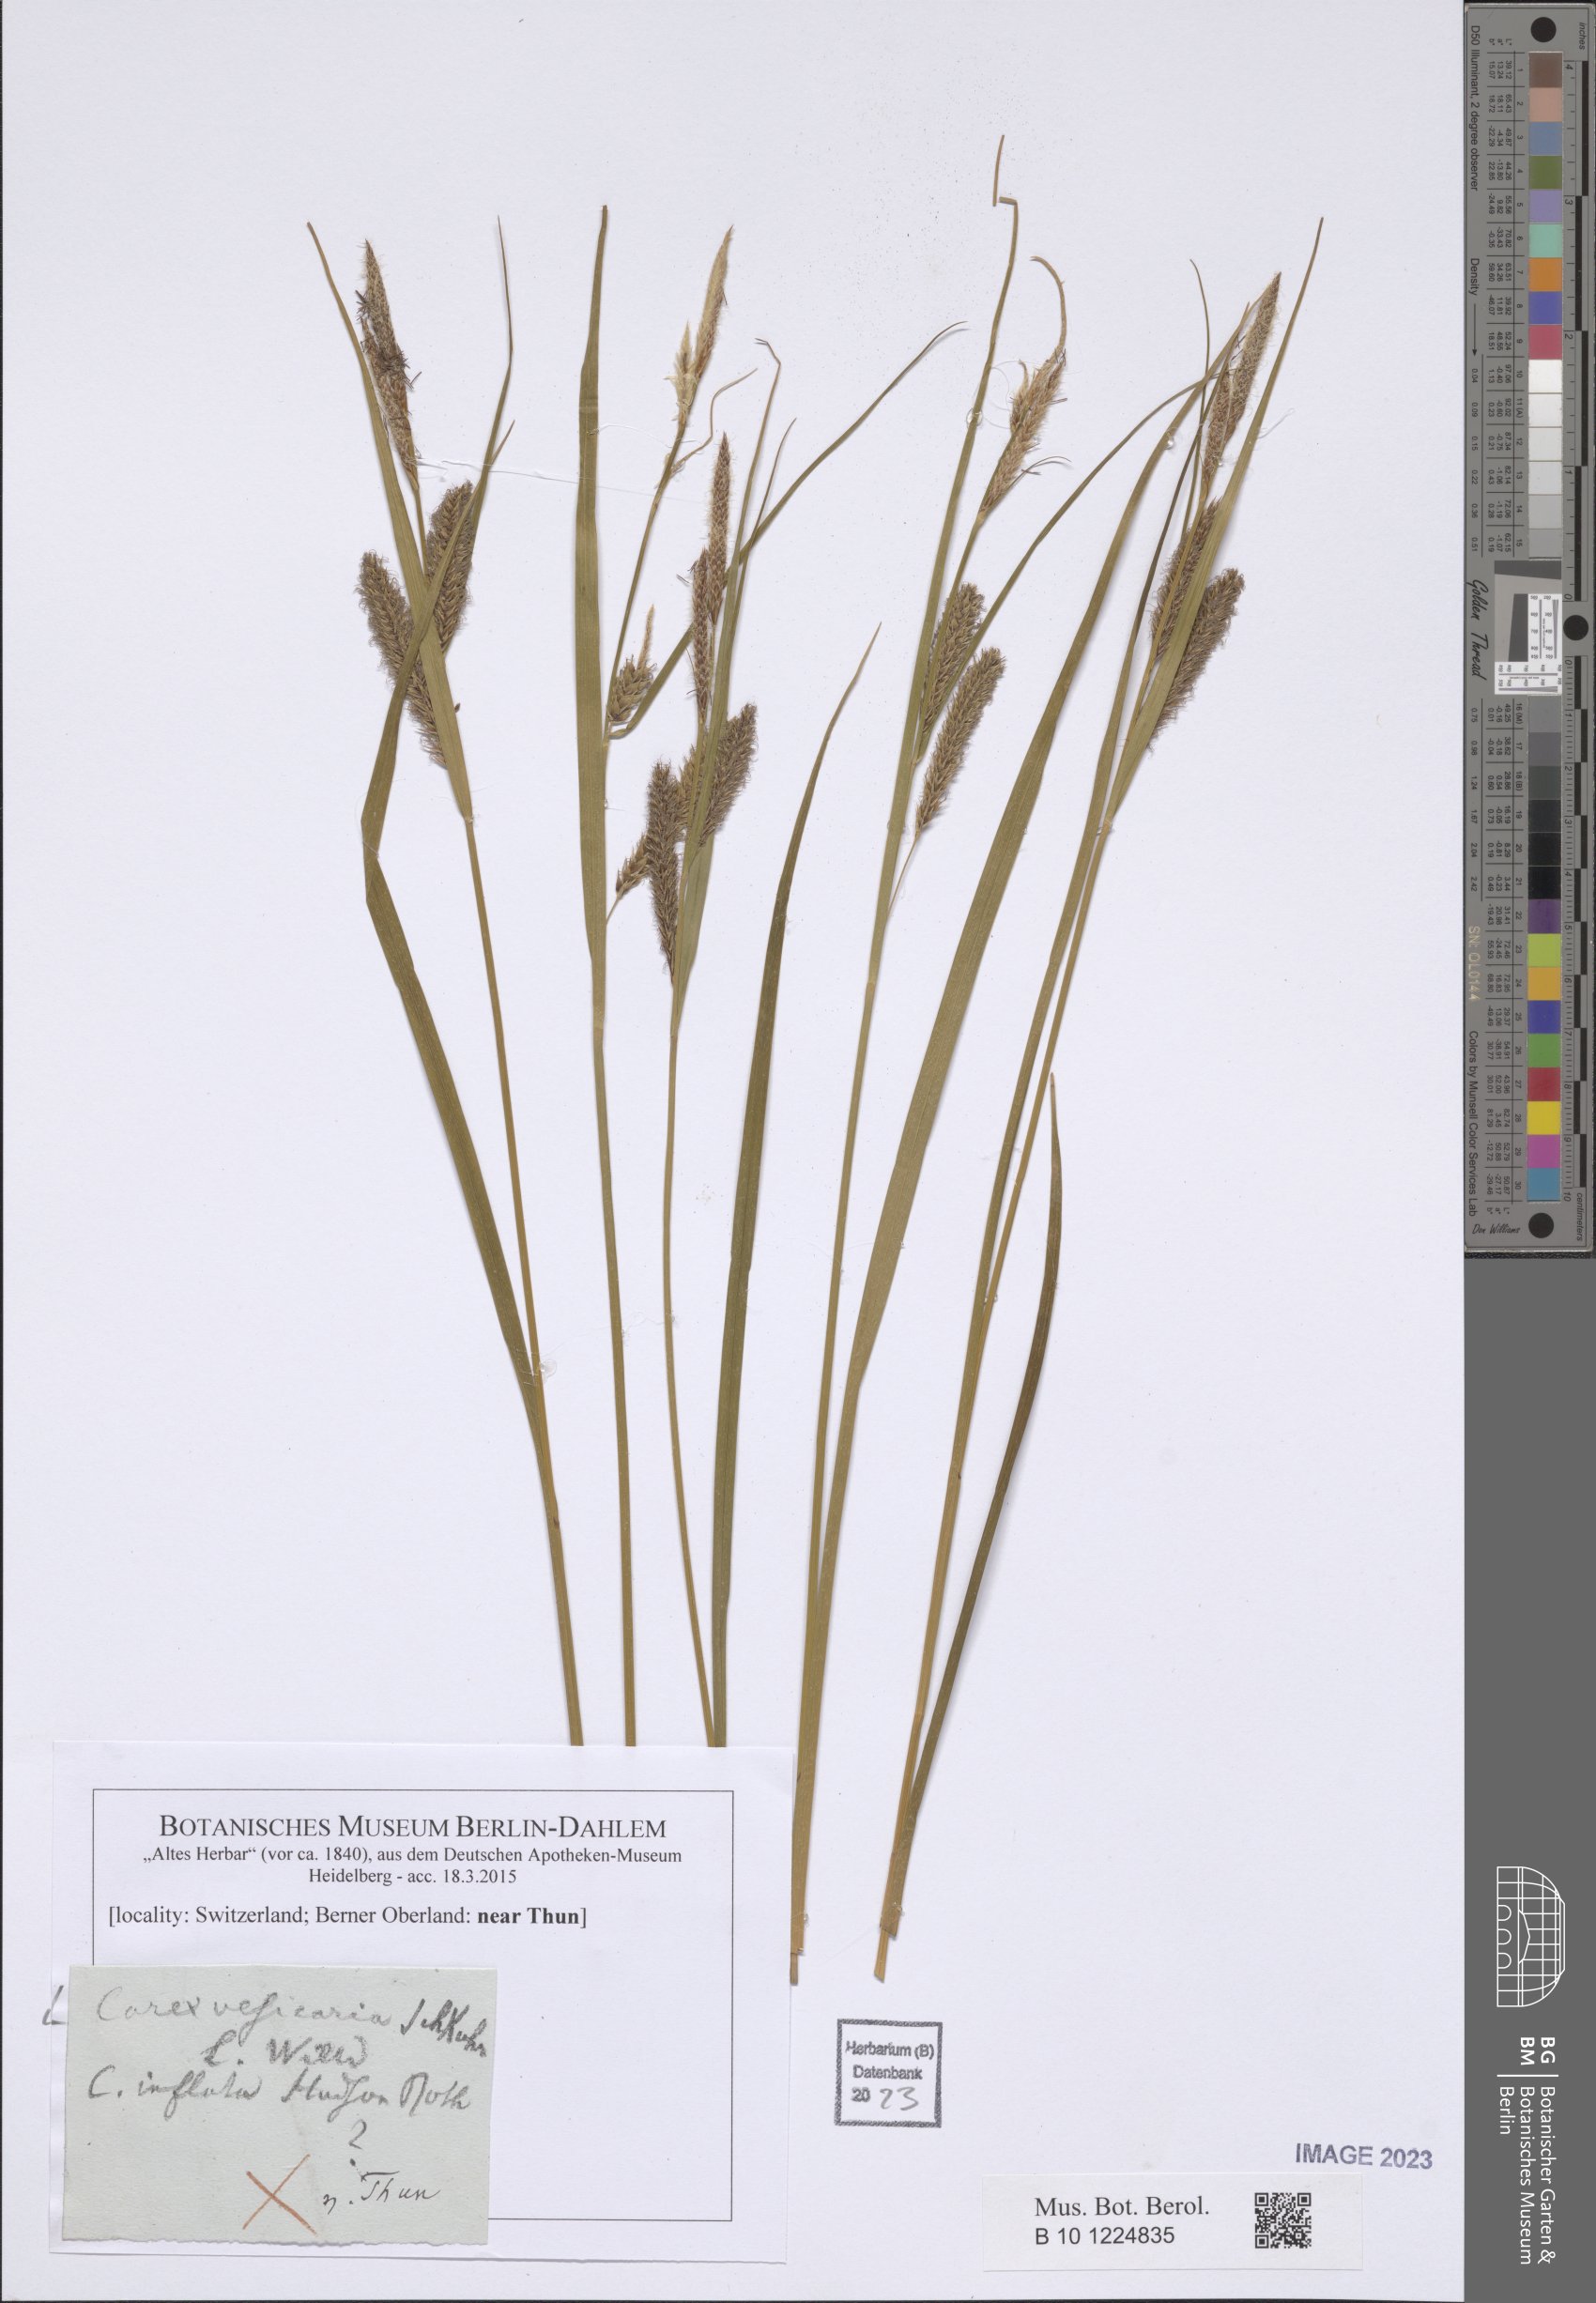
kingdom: Plantae
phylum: Tracheophyta
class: Liliopsida
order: Poales
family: Cyperaceae
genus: Carex
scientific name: Carex vesicaria
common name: Bladder-sedge
